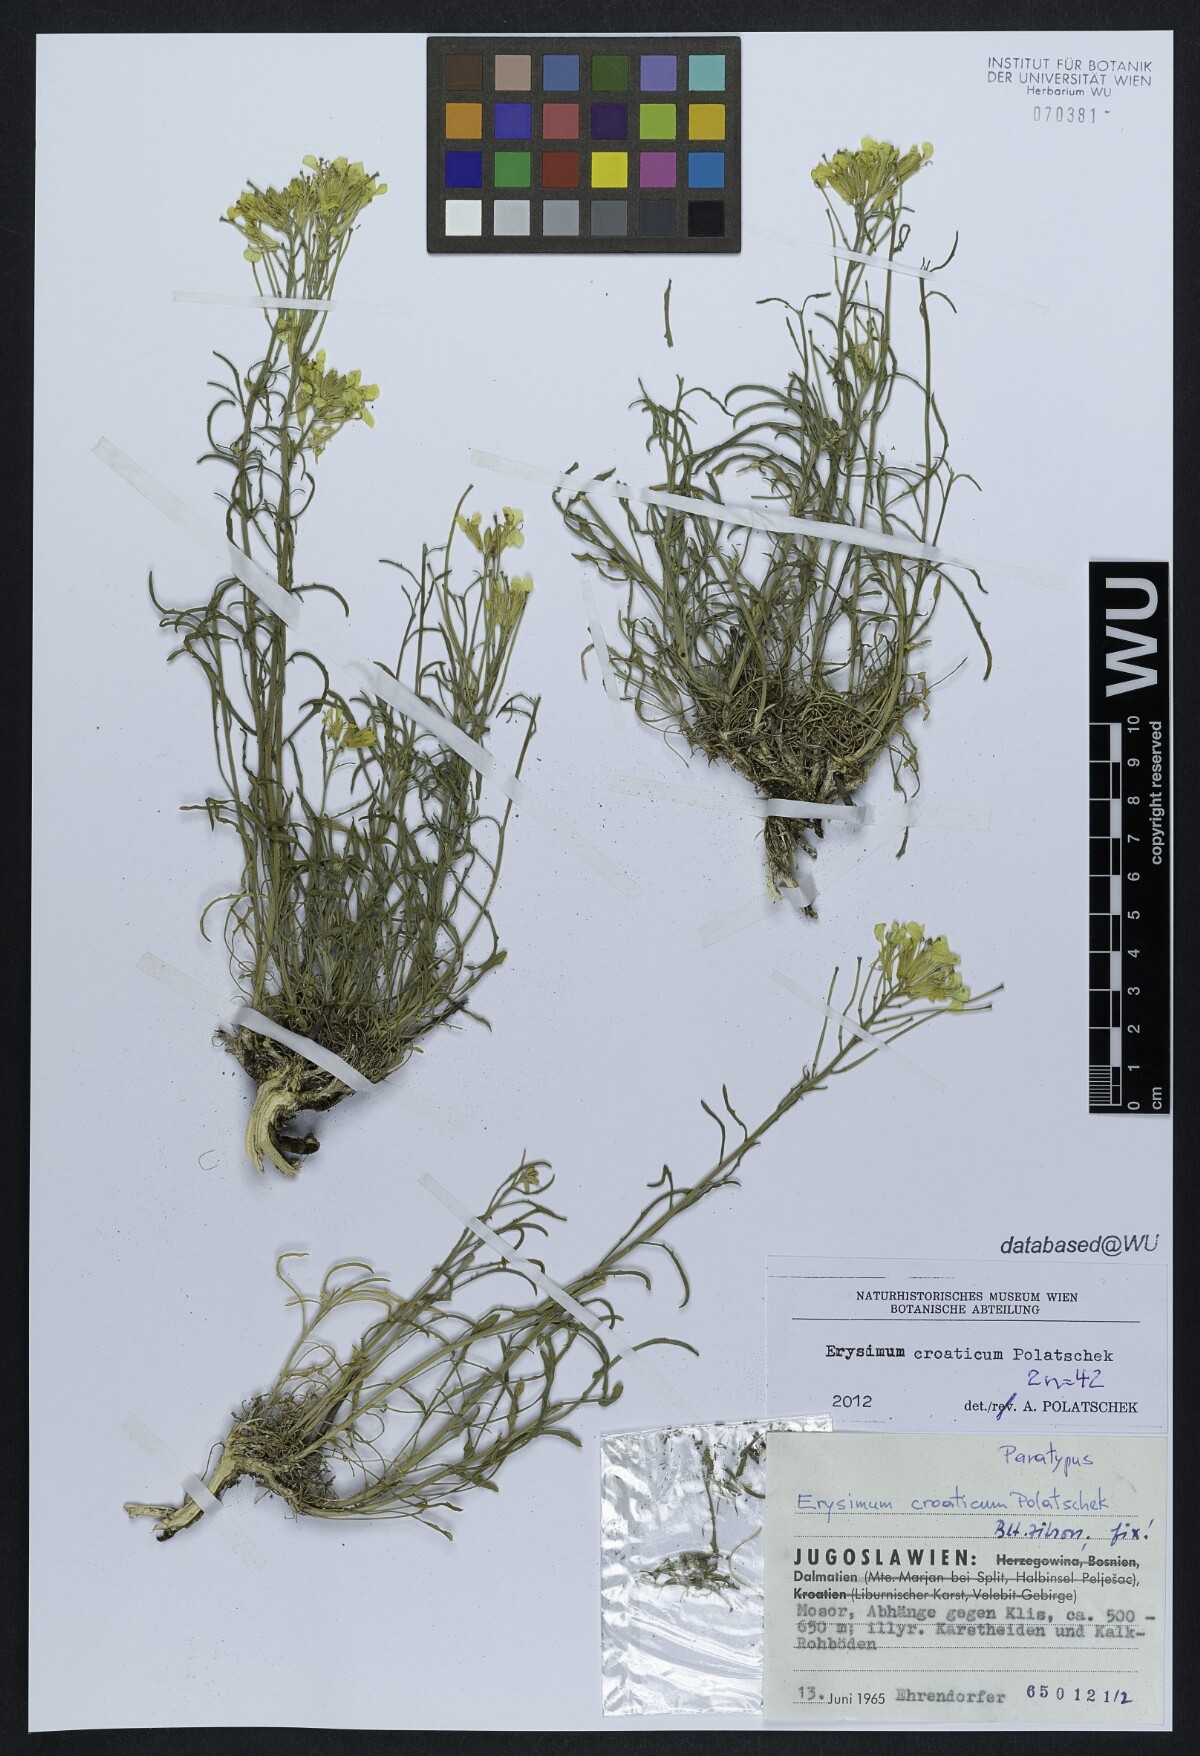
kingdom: Plantae
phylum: Tracheophyta
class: Magnoliopsida
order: Brassicales
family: Brassicaceae
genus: Erysimum
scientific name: Erysimum croaticum
